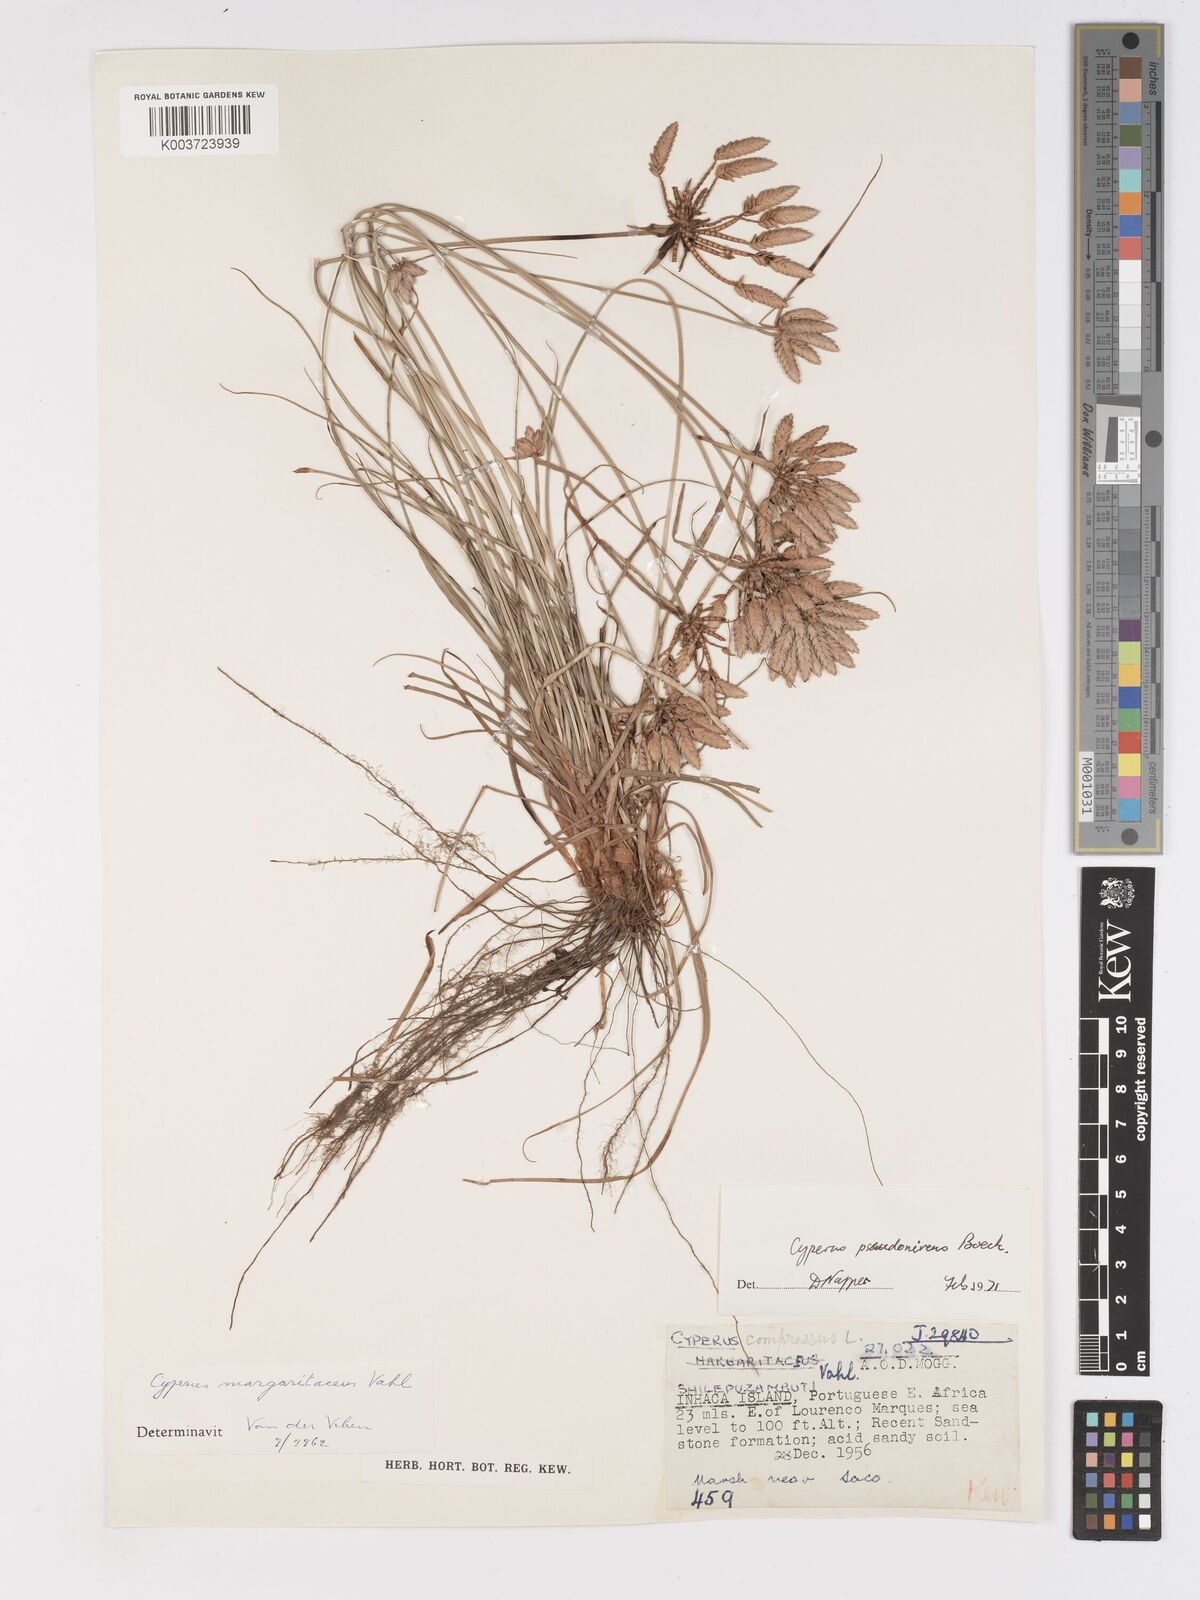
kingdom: Plantae
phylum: Tracheophyta
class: Liliopsida
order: Poales
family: Cyperaceae
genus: Cyperus
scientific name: Cyperus margaritaceus
